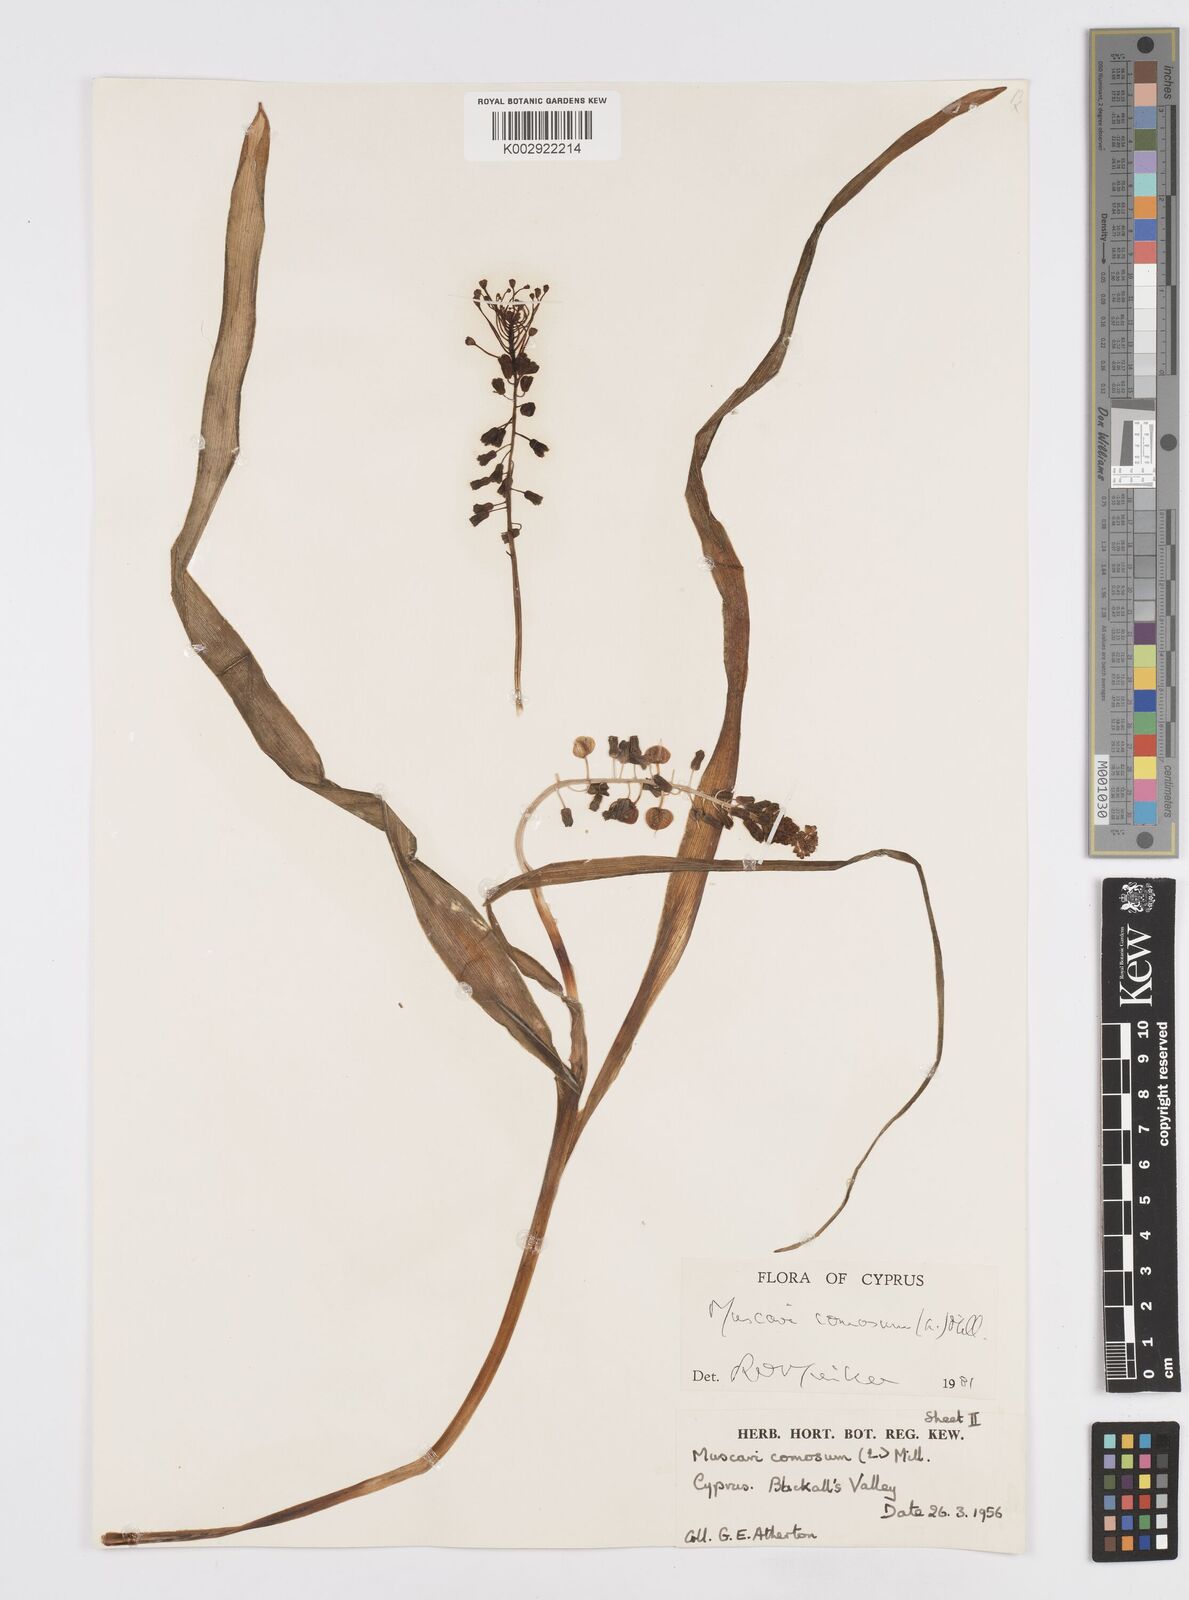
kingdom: Plantae
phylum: Tracheophyta
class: Liliopsida
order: Asparagales
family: Asparagaceae
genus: Muscari
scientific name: Muscari comosum
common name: Tassel hyacinth
